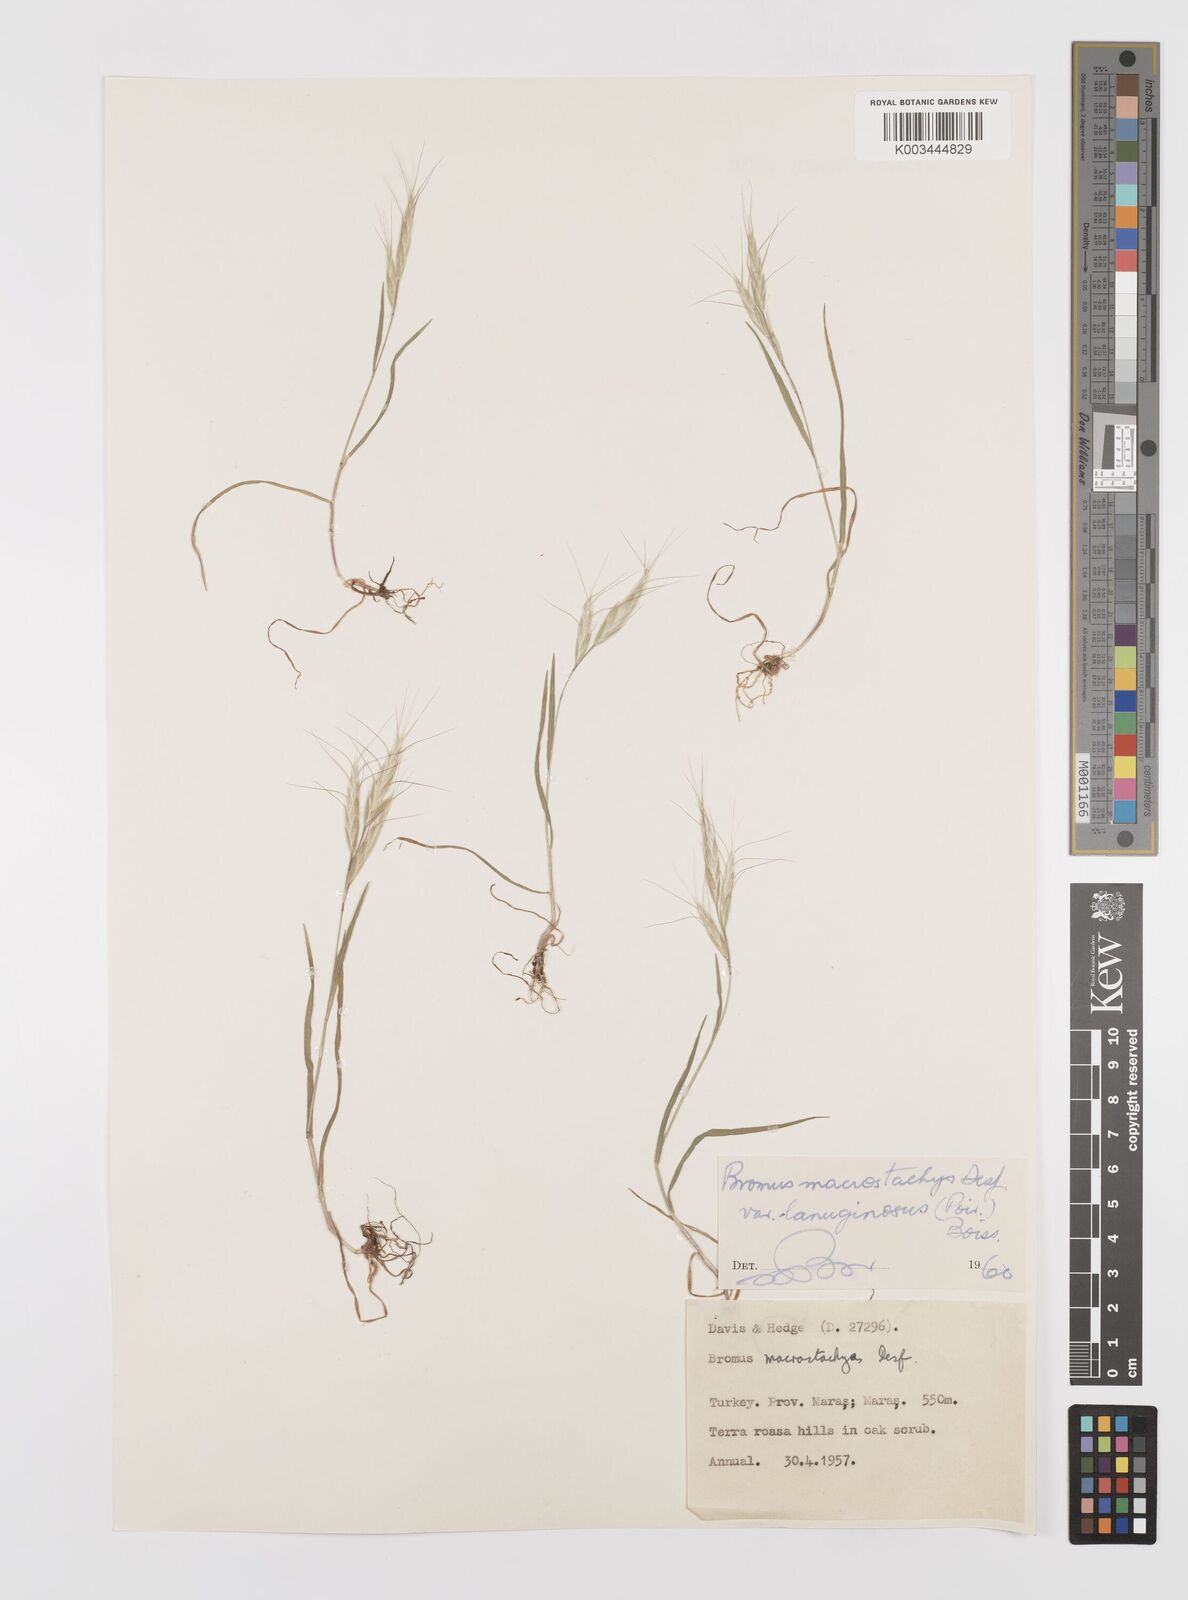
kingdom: Plantae
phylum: Tracheophyta
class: Liliopsida
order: Poales
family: Poaceae
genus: Bromus
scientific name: Bromus lanceolatus
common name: Mediterranean brome
